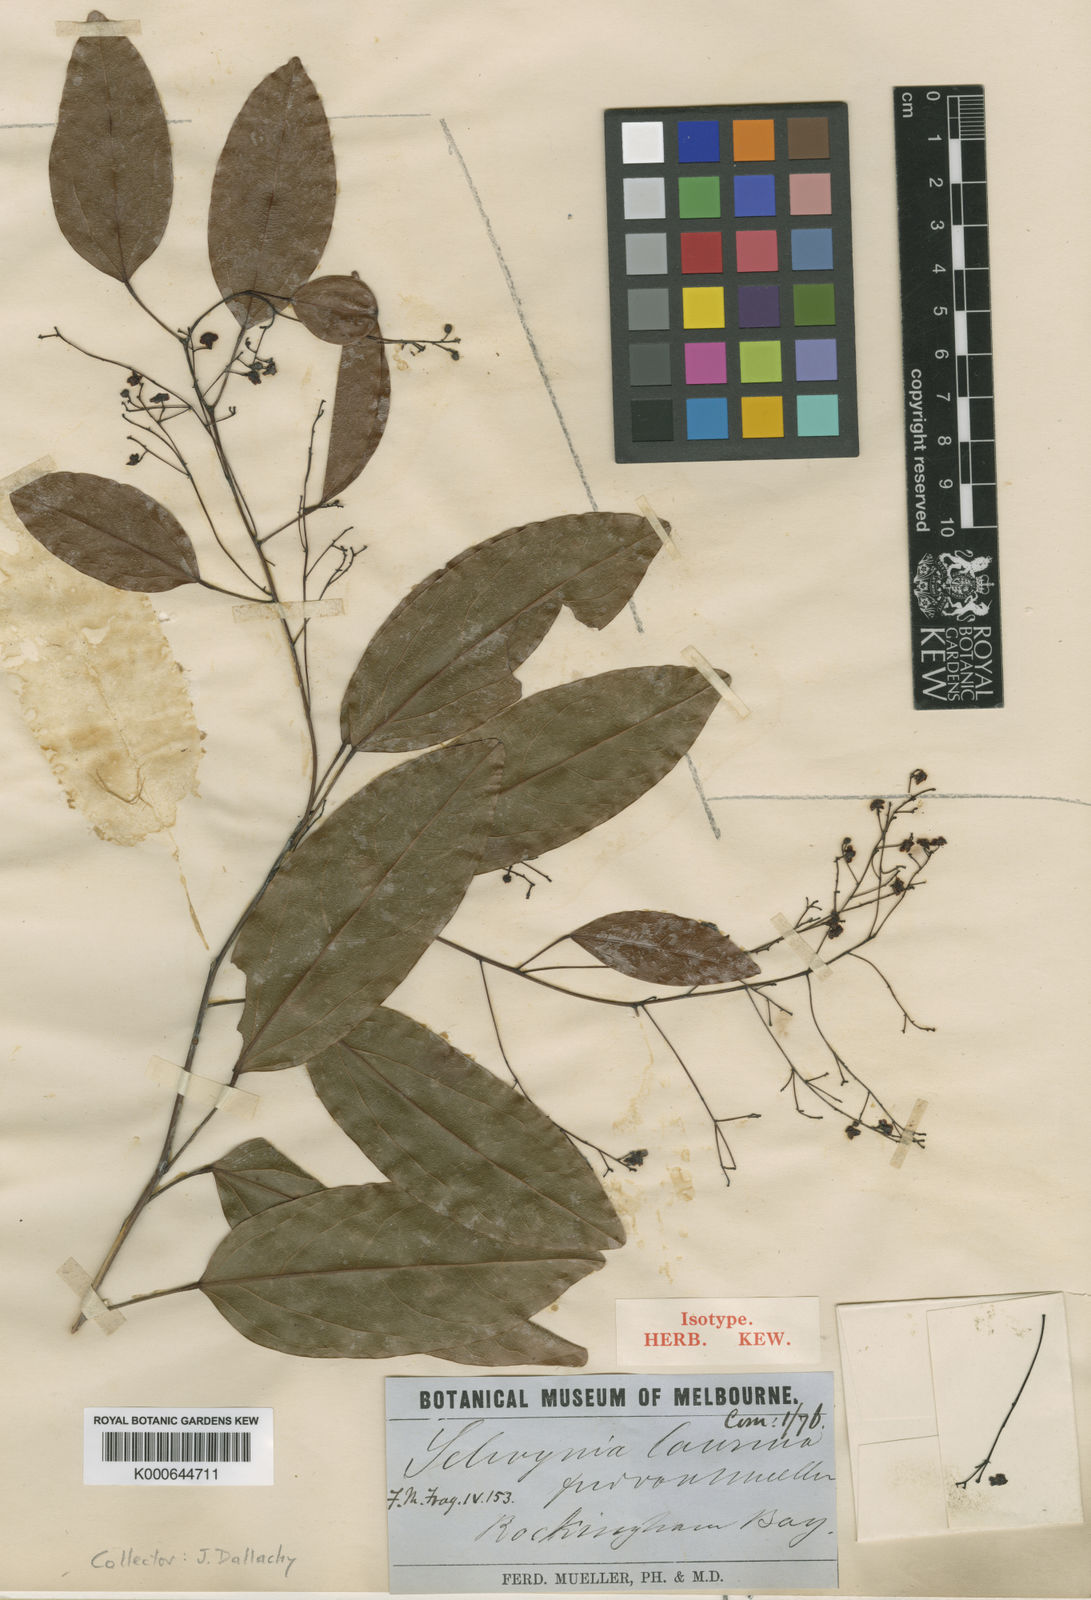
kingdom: Plantae
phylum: Tracheophyta
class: Magnoliopsida
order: Ranunculales
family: Menispermaceae
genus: Hypserpa
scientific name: Hypserpa laurina
